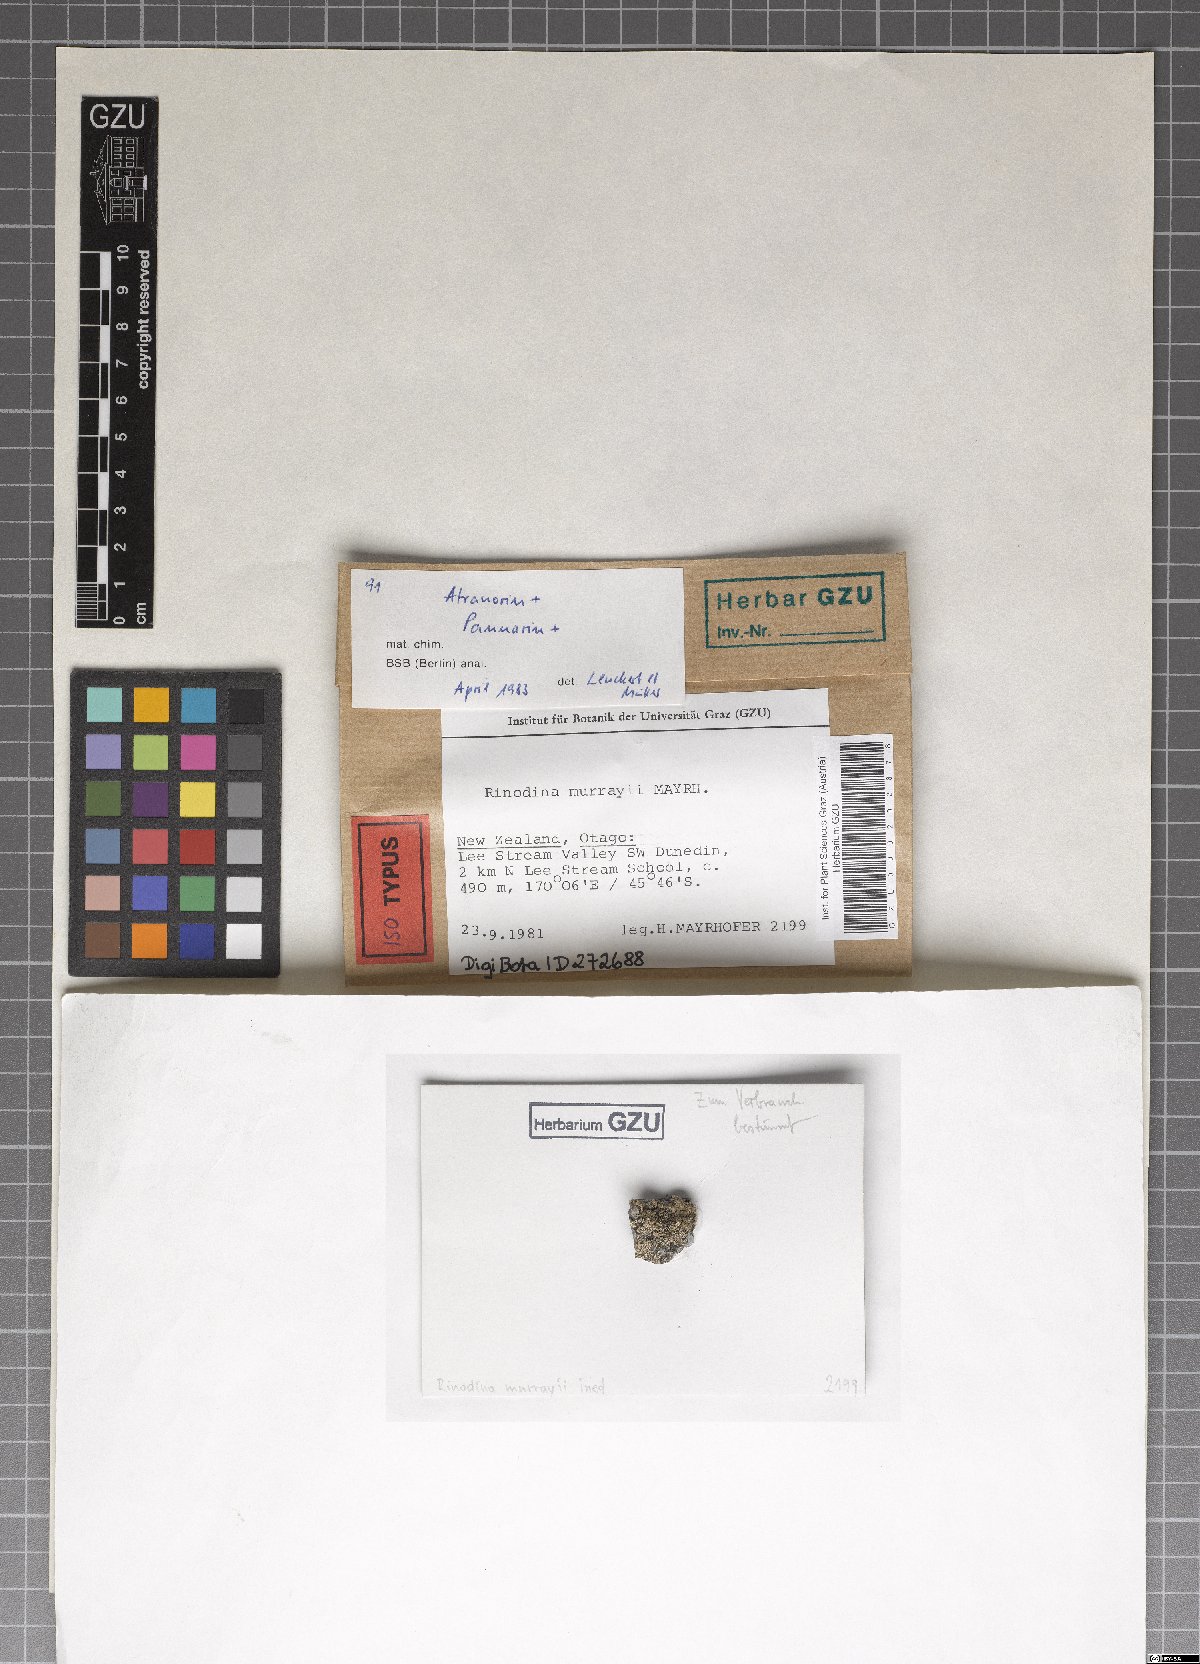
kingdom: Fungi
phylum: Ascomycota
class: Lecanoromycetes
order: Caliciales
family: Physciaceae
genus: Rinodina
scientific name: Rinodina murrayi
